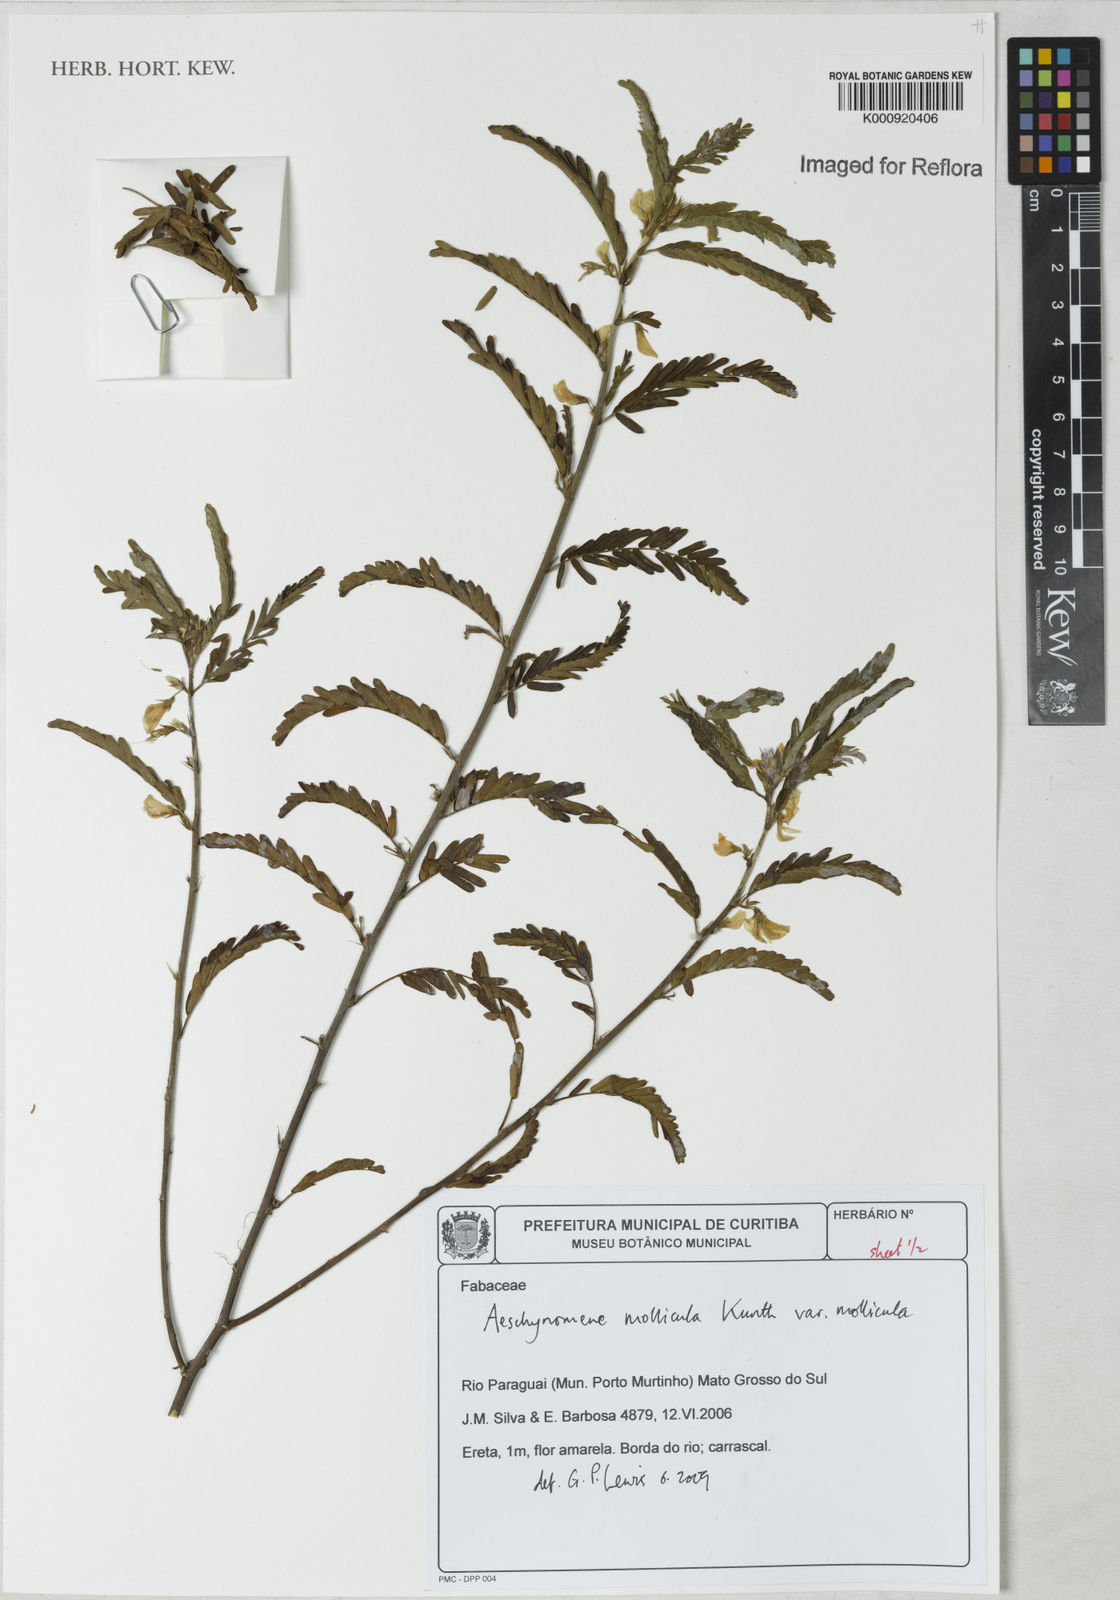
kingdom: Plantae
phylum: Tracheophyta
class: Magnoliopsida
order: Fabales
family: Fabaceae
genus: Ctenodon
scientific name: Ctenodon molliculus
